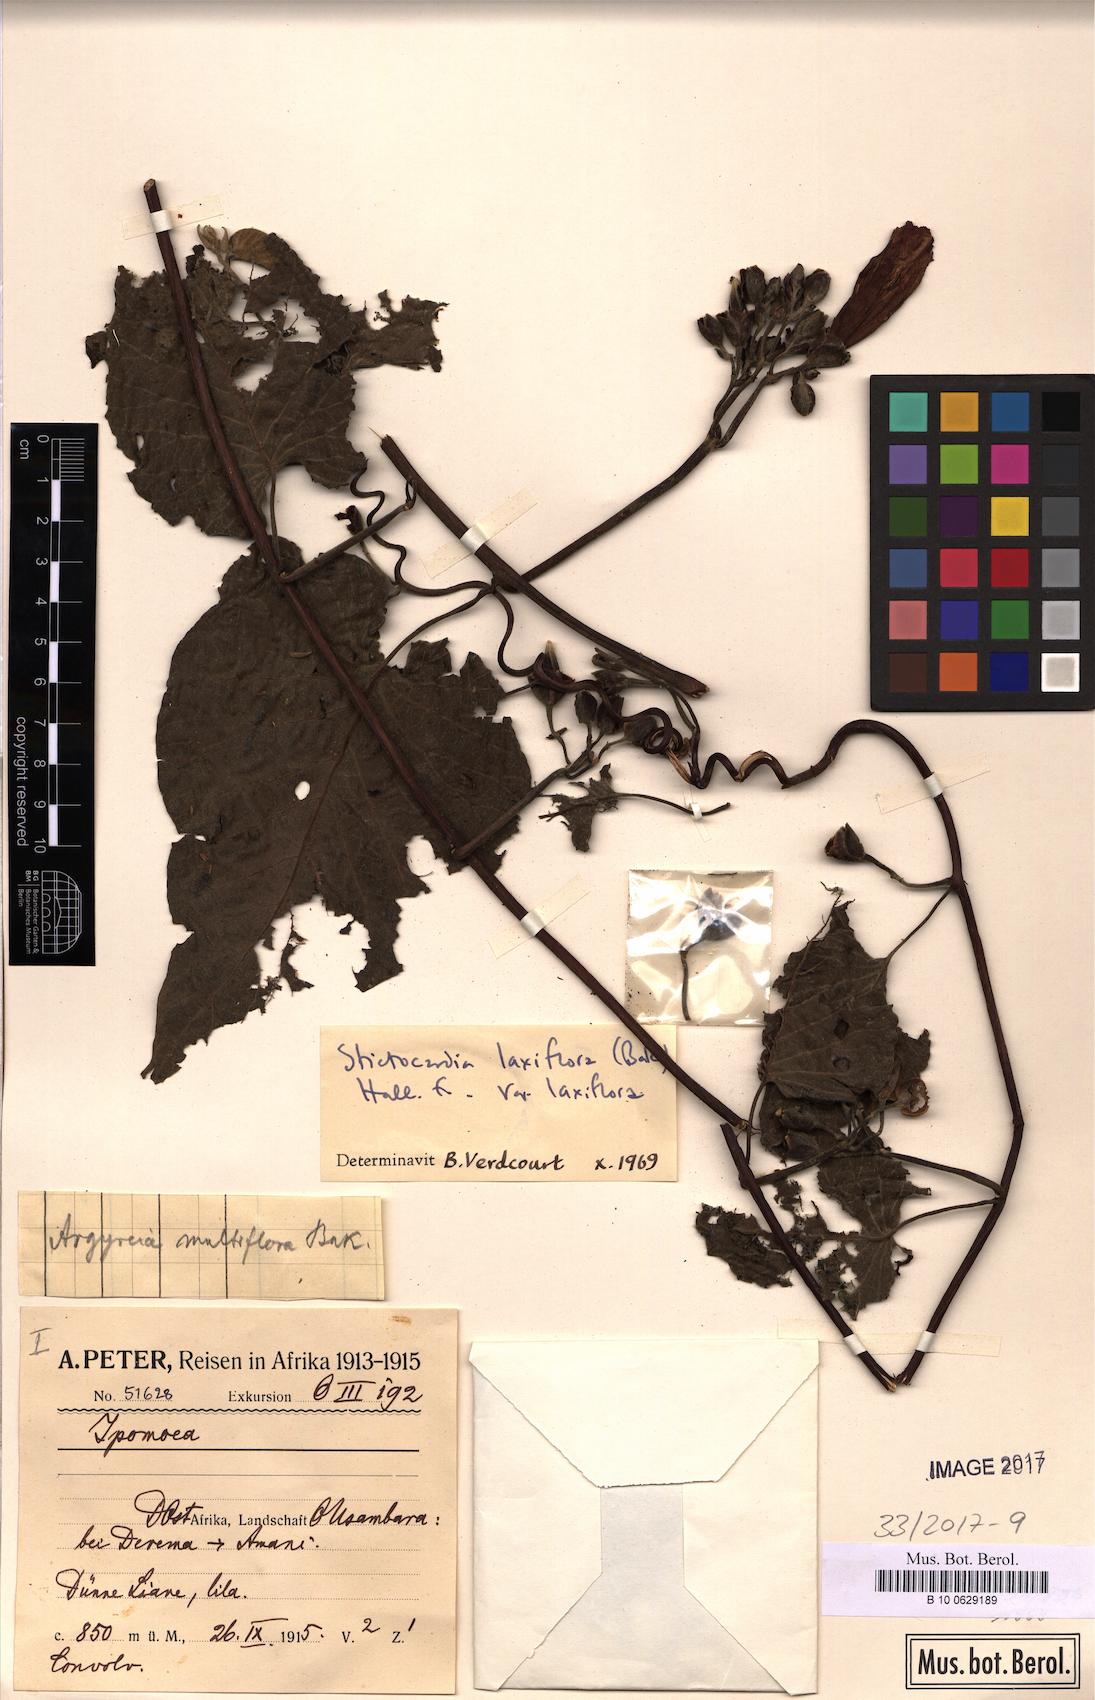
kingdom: Plantae
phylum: Tracheophyta
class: Magnoliopsida
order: Solanales
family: Convolvulaceae
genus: Stictocardia
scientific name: Stictocardia laxiflora
